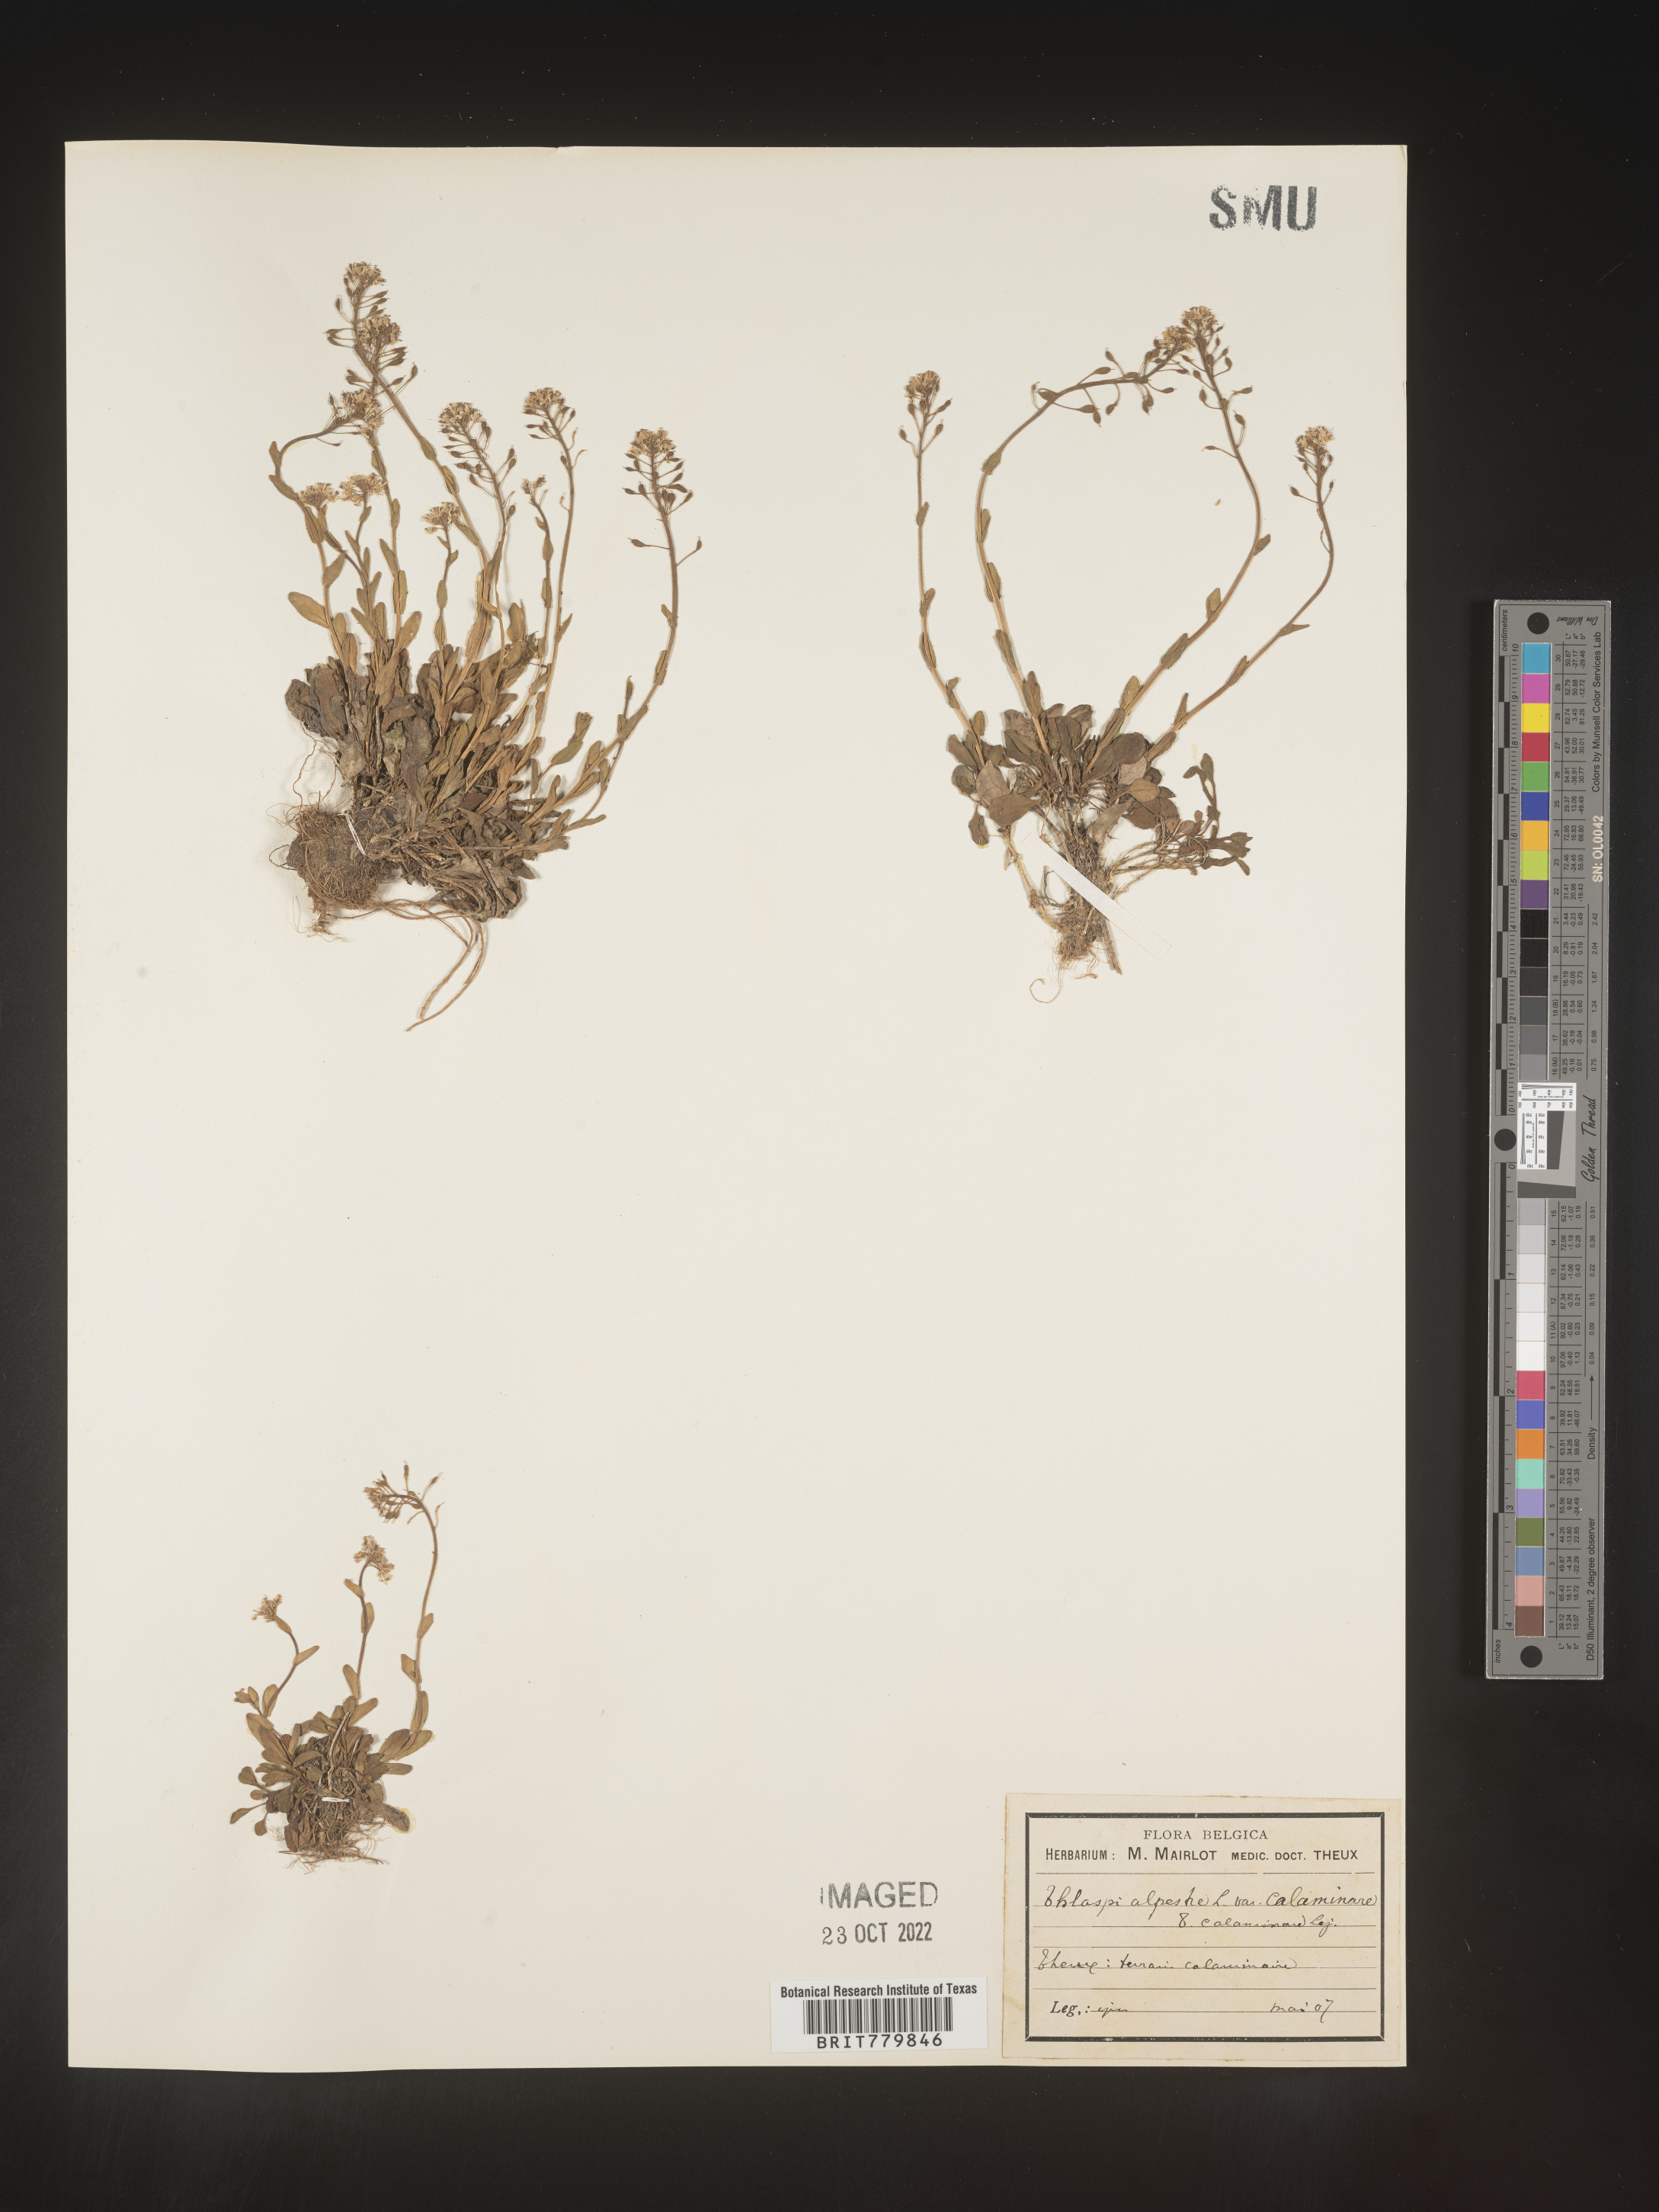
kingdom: Plantae
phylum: Tracheophyta
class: Magnoliopsida
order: Brassicales
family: Brassicaceae
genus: Thlaspi
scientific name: Thlaspi
